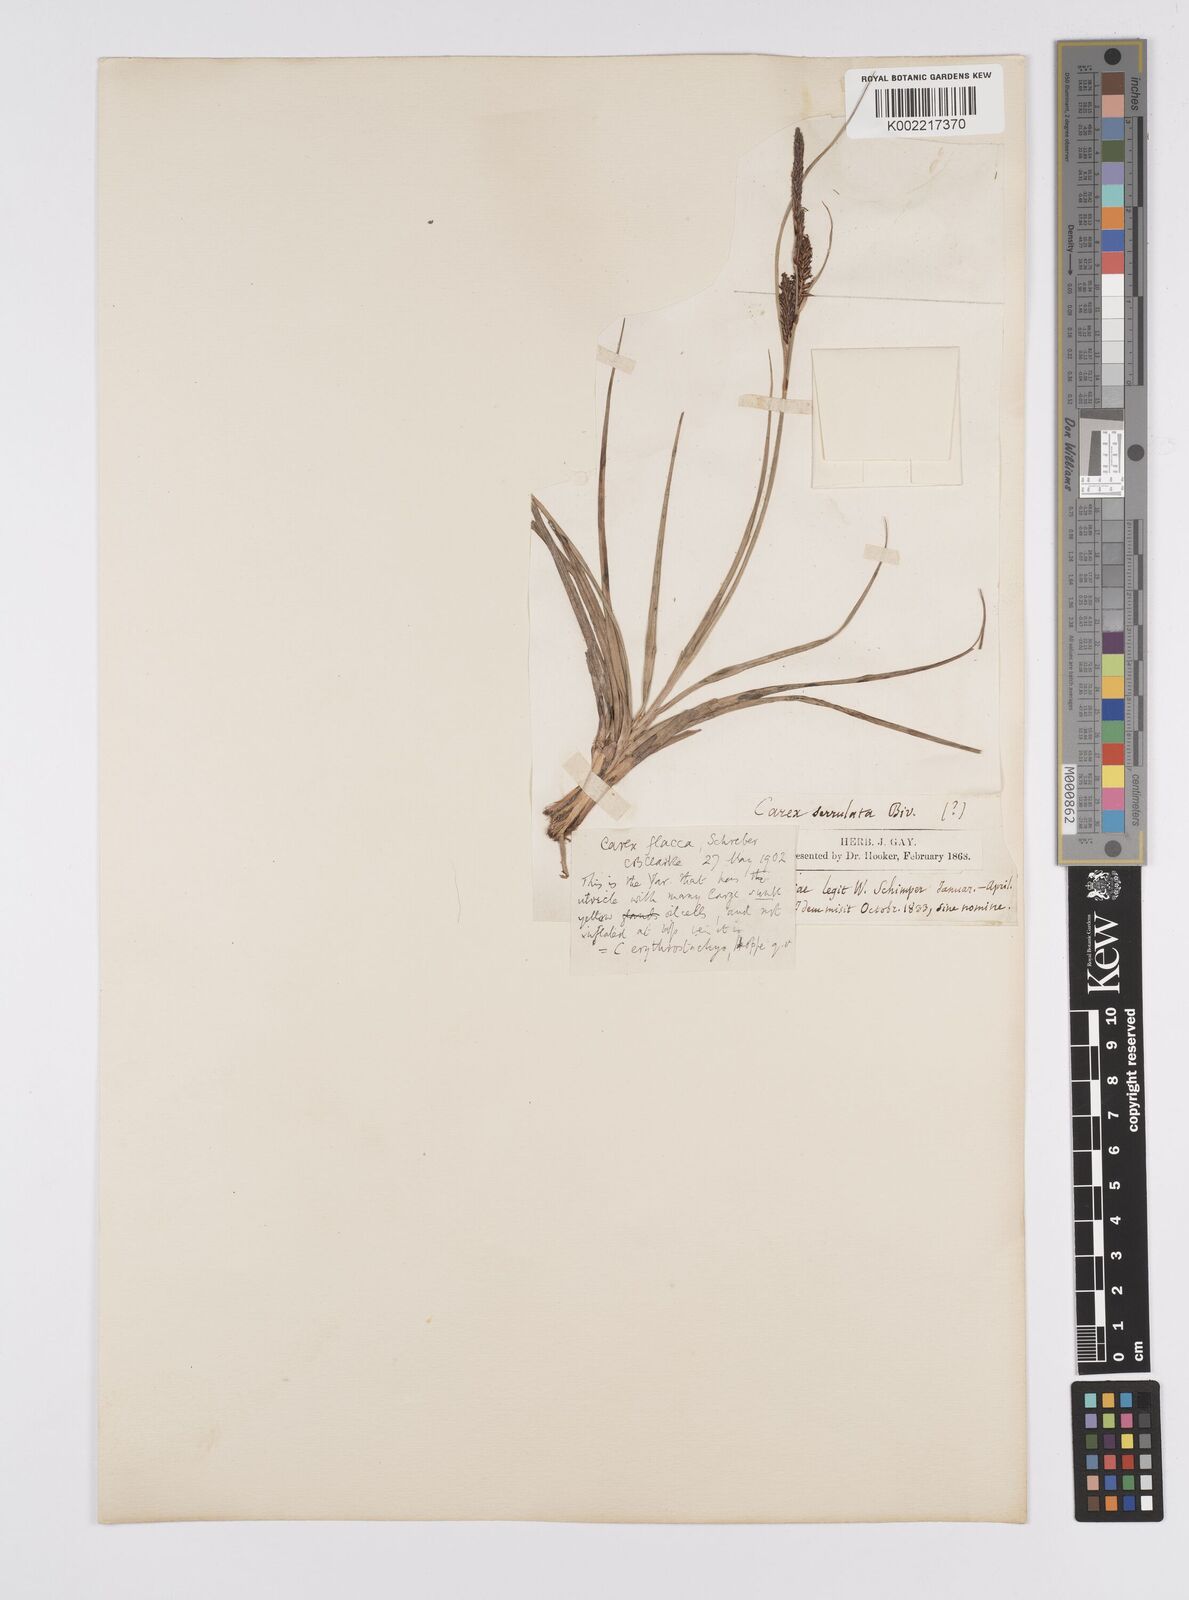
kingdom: Plantae
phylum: Tracheophyta
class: Liliopsida
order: Poales
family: Cyperaceae
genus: Carex
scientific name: Carex flacca
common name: Glaucous sedge
